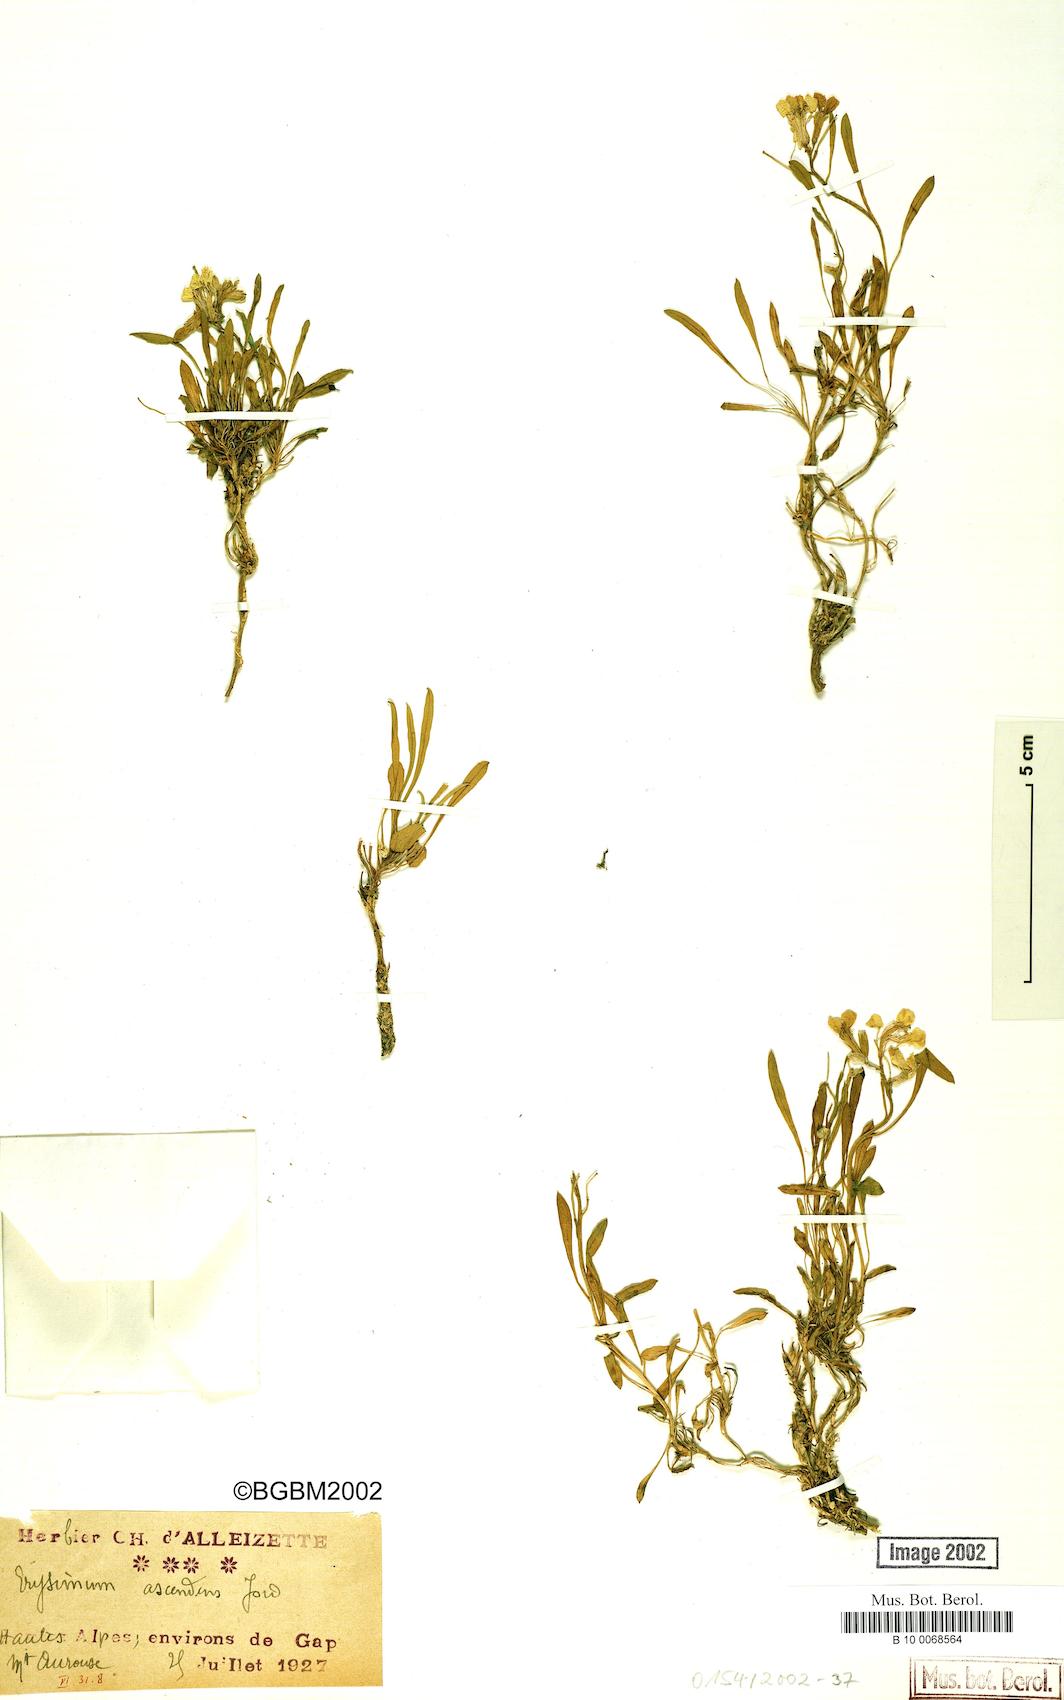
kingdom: Plantae
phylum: Tracheophyta
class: Magnoliopsida
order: Brassicales
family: Brassicaceae
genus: Erysimum
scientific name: Erysimum humile
